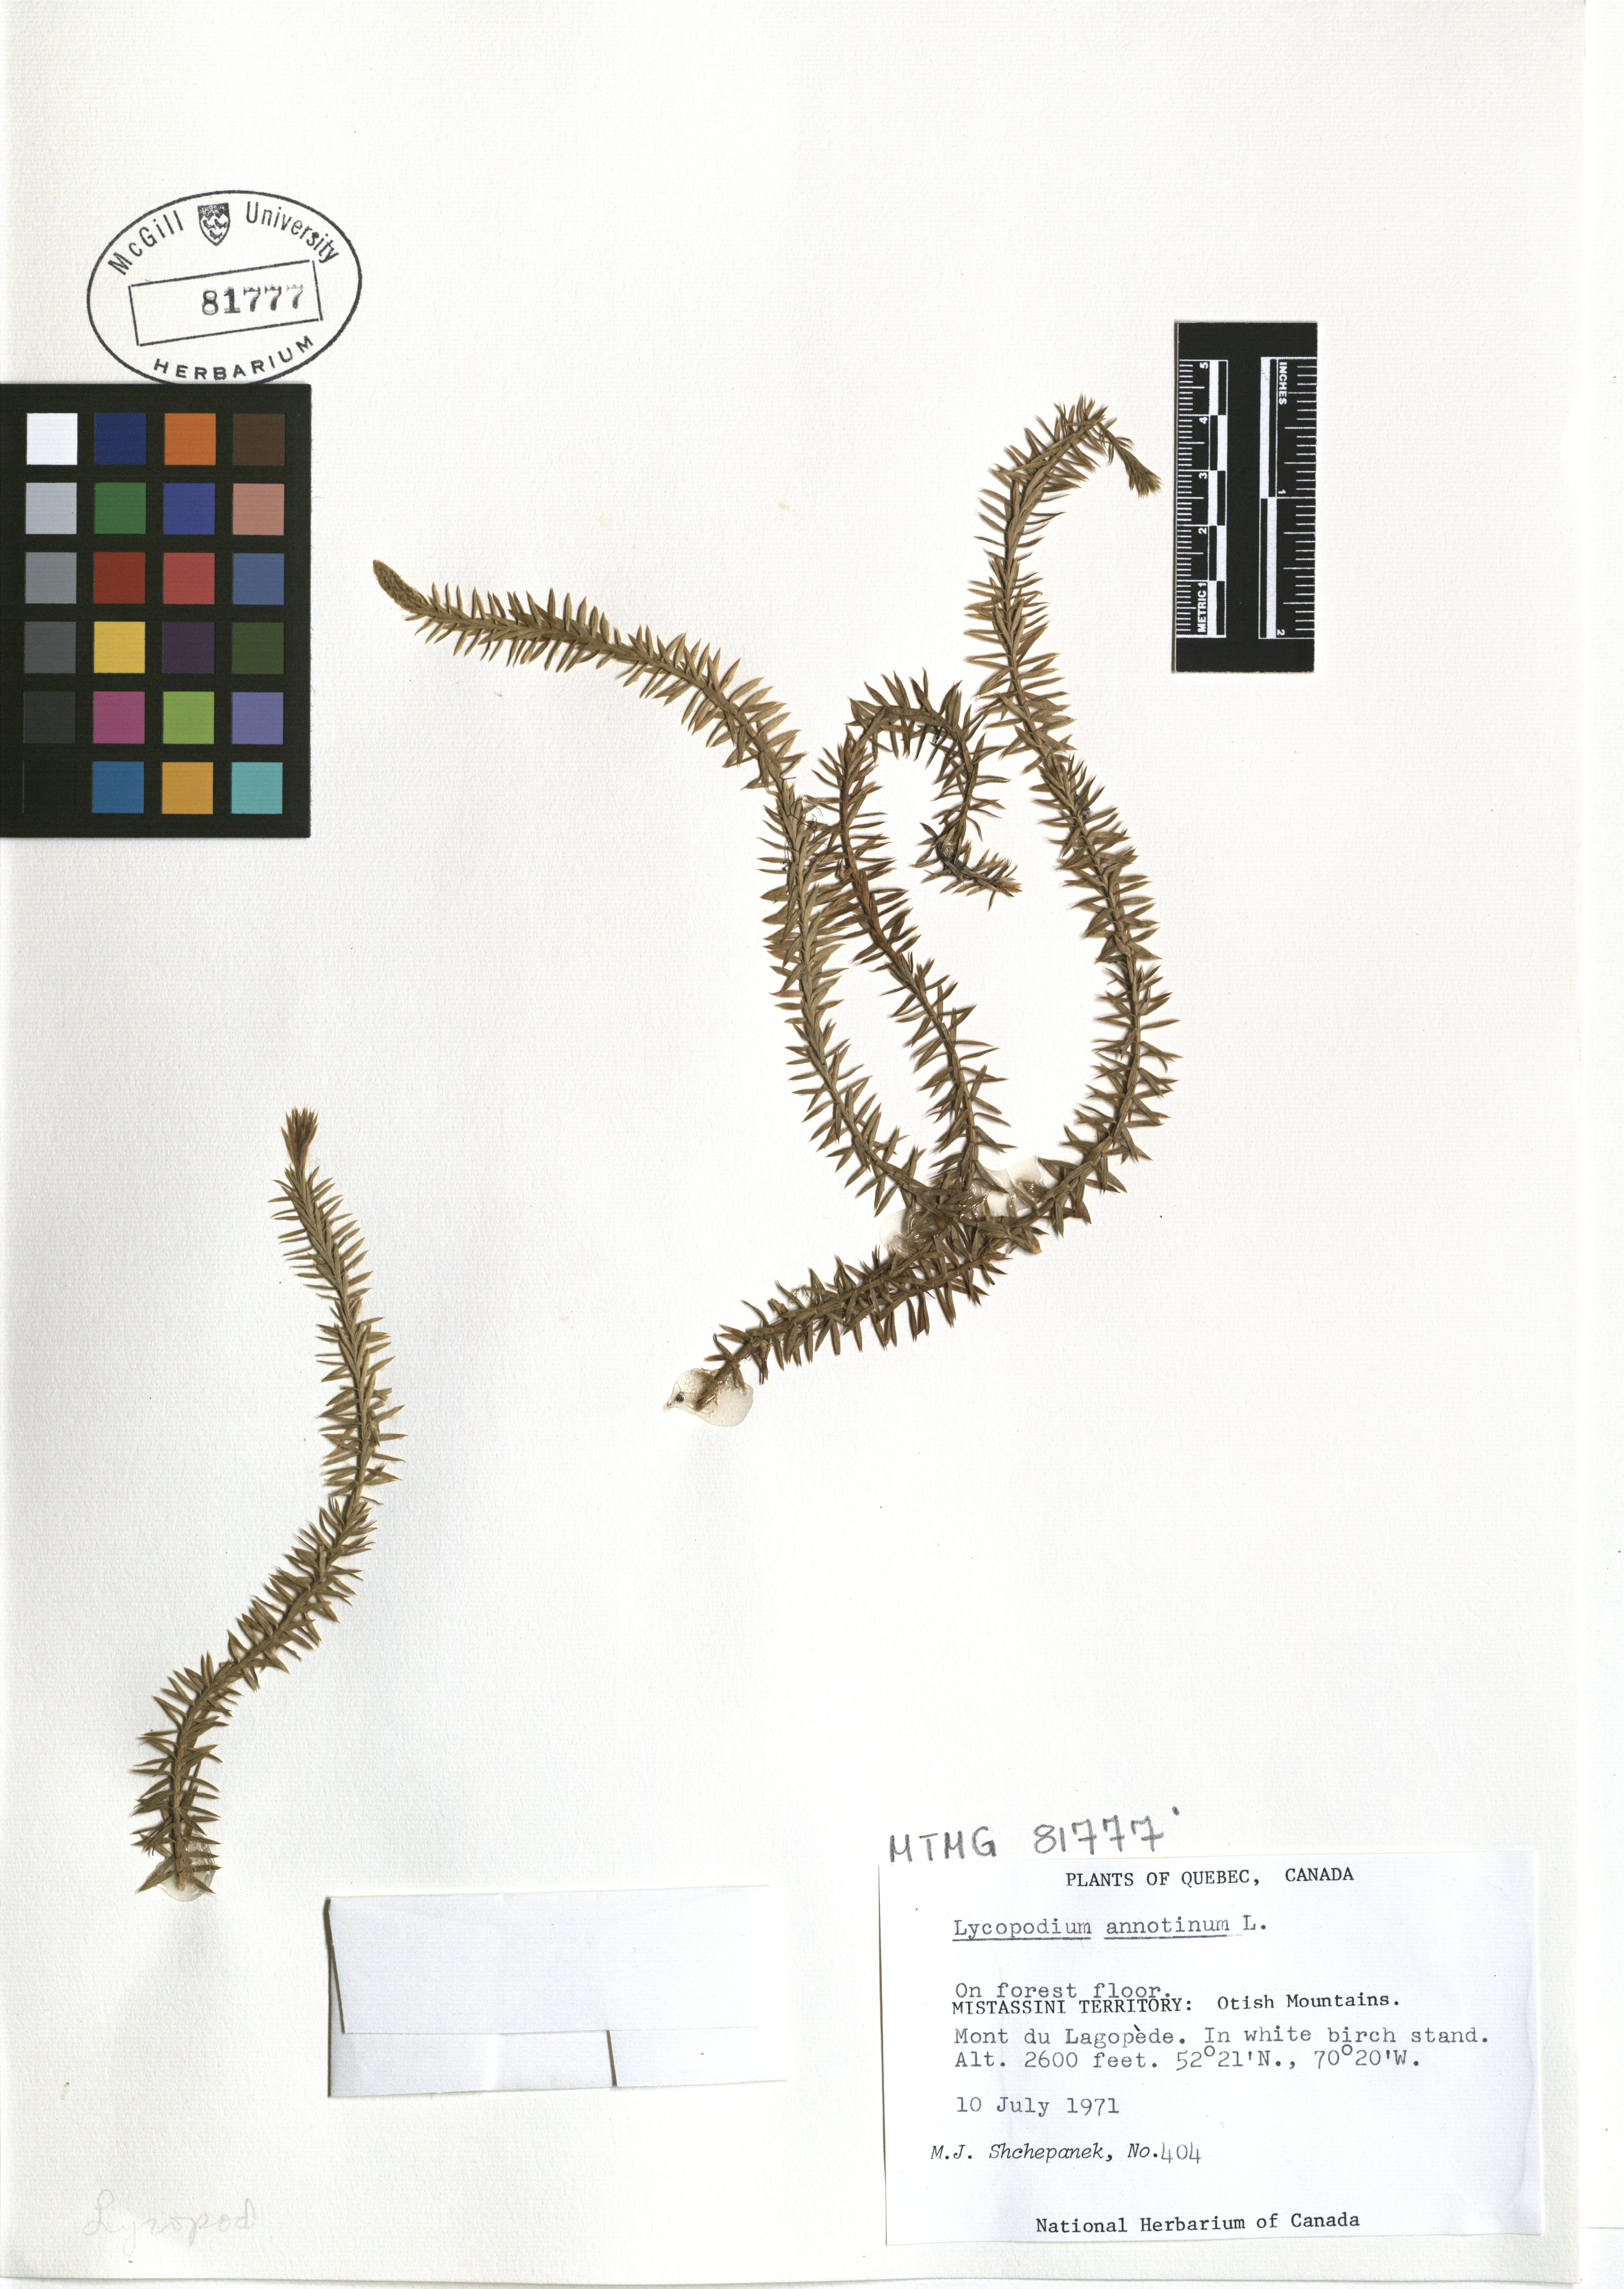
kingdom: Plantae
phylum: Tracheophyta
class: Lycopodiopsida
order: Lycopodiales
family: Lycopodiaceae
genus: Spinulum
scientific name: Spinulum annotinum
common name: Interrupted club-moss
